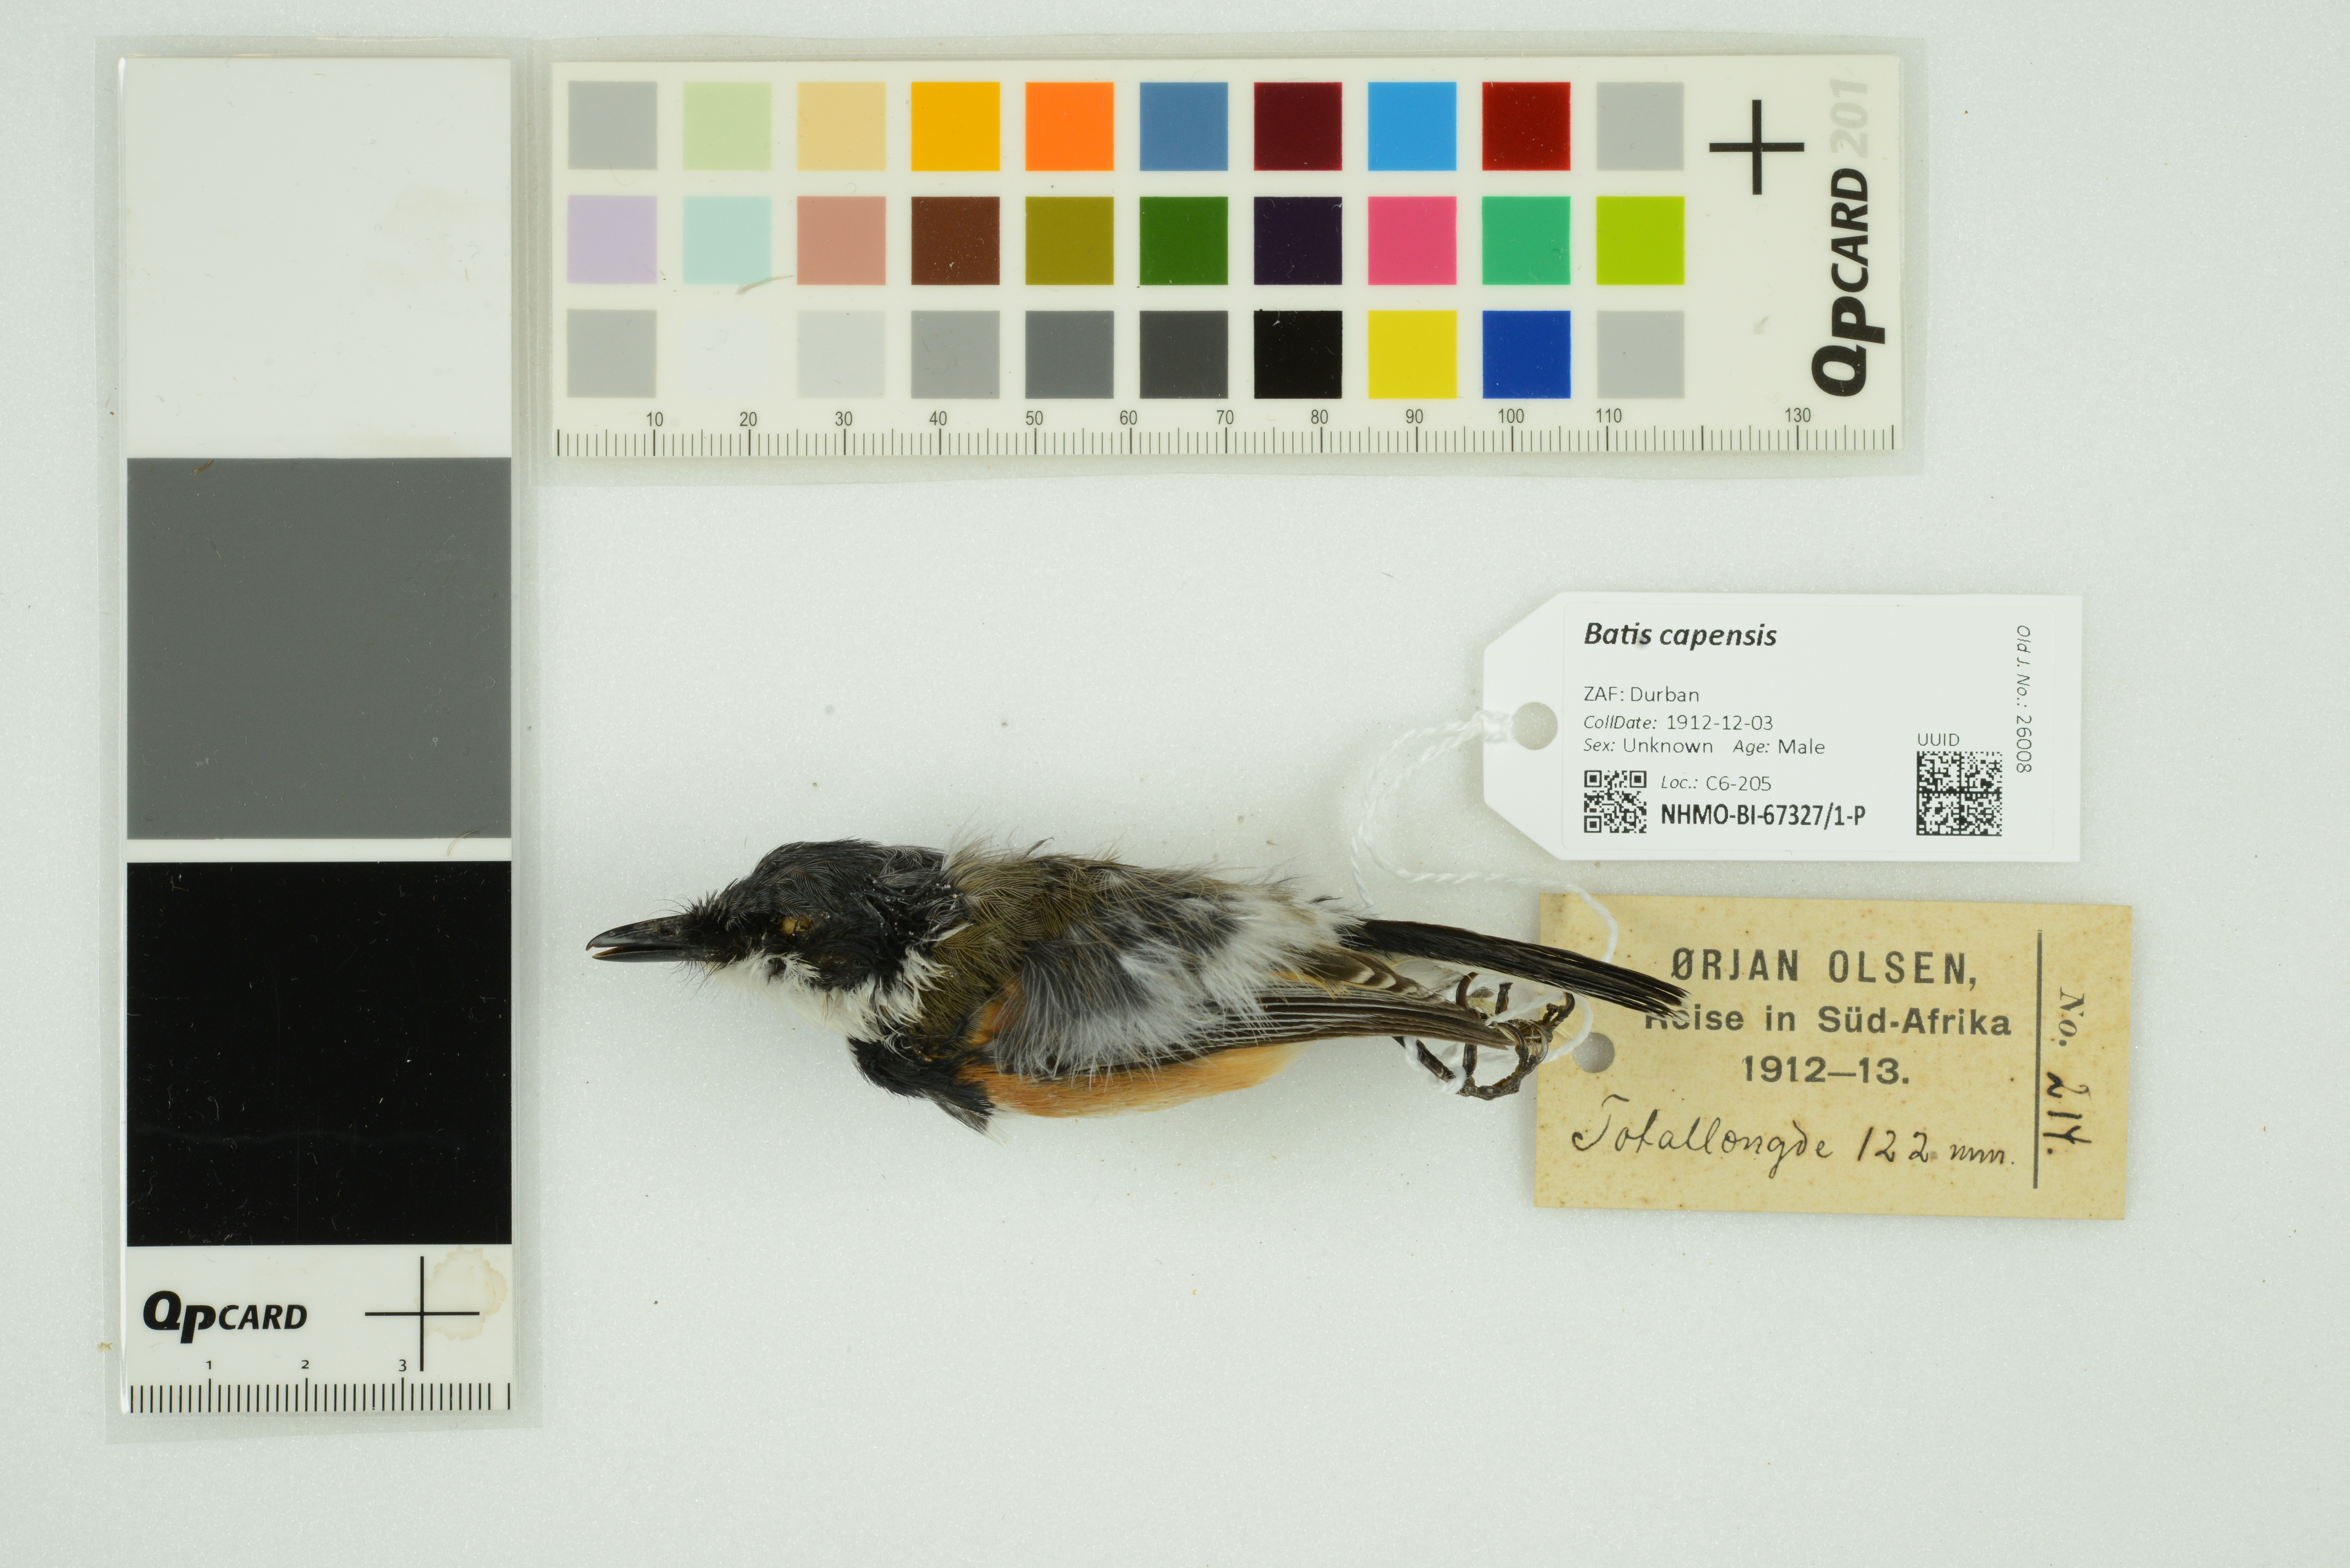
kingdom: Animalia
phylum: Chordata
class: Aves
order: Passeriformes
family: Platysteiridae
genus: Batis
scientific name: Batis capensis
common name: Cape batis
